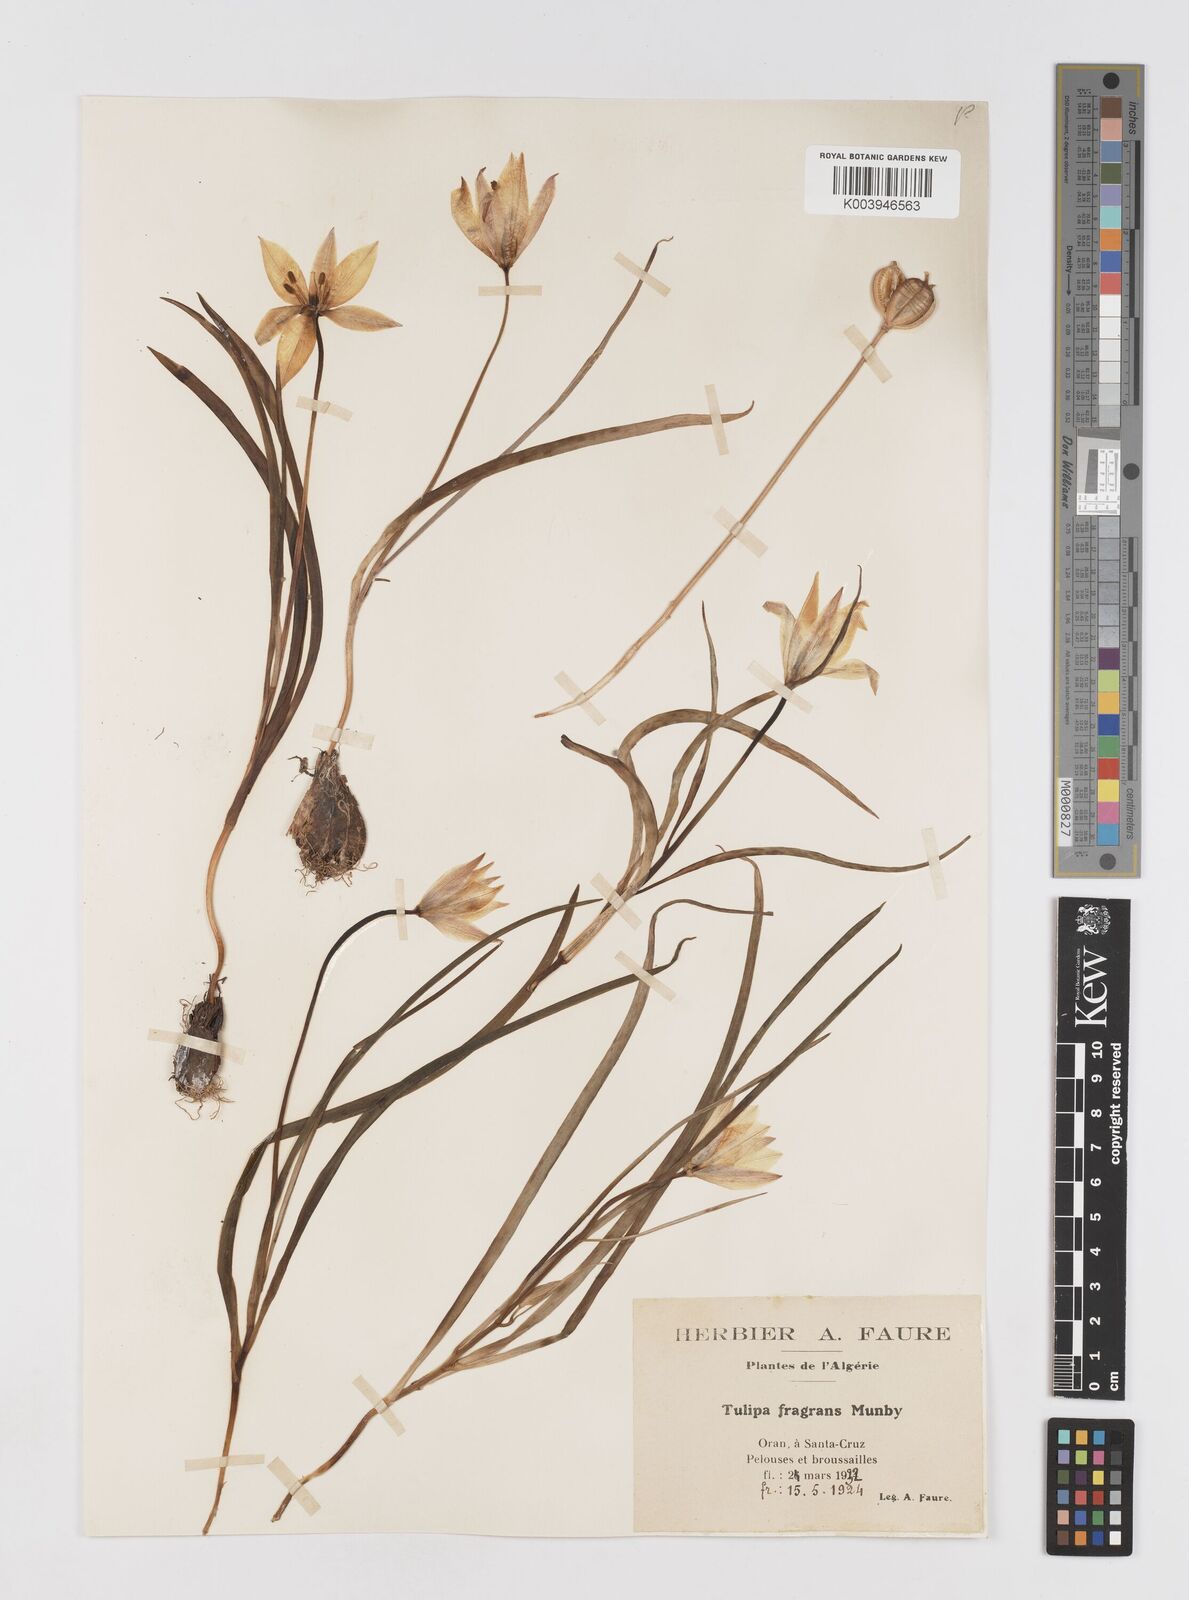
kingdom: Plantae
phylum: Tracheophyta
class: Liliopsida
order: Liliales
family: Liliaceae
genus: Tulipa
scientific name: Tulipa sylvestris
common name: Wild tulip
